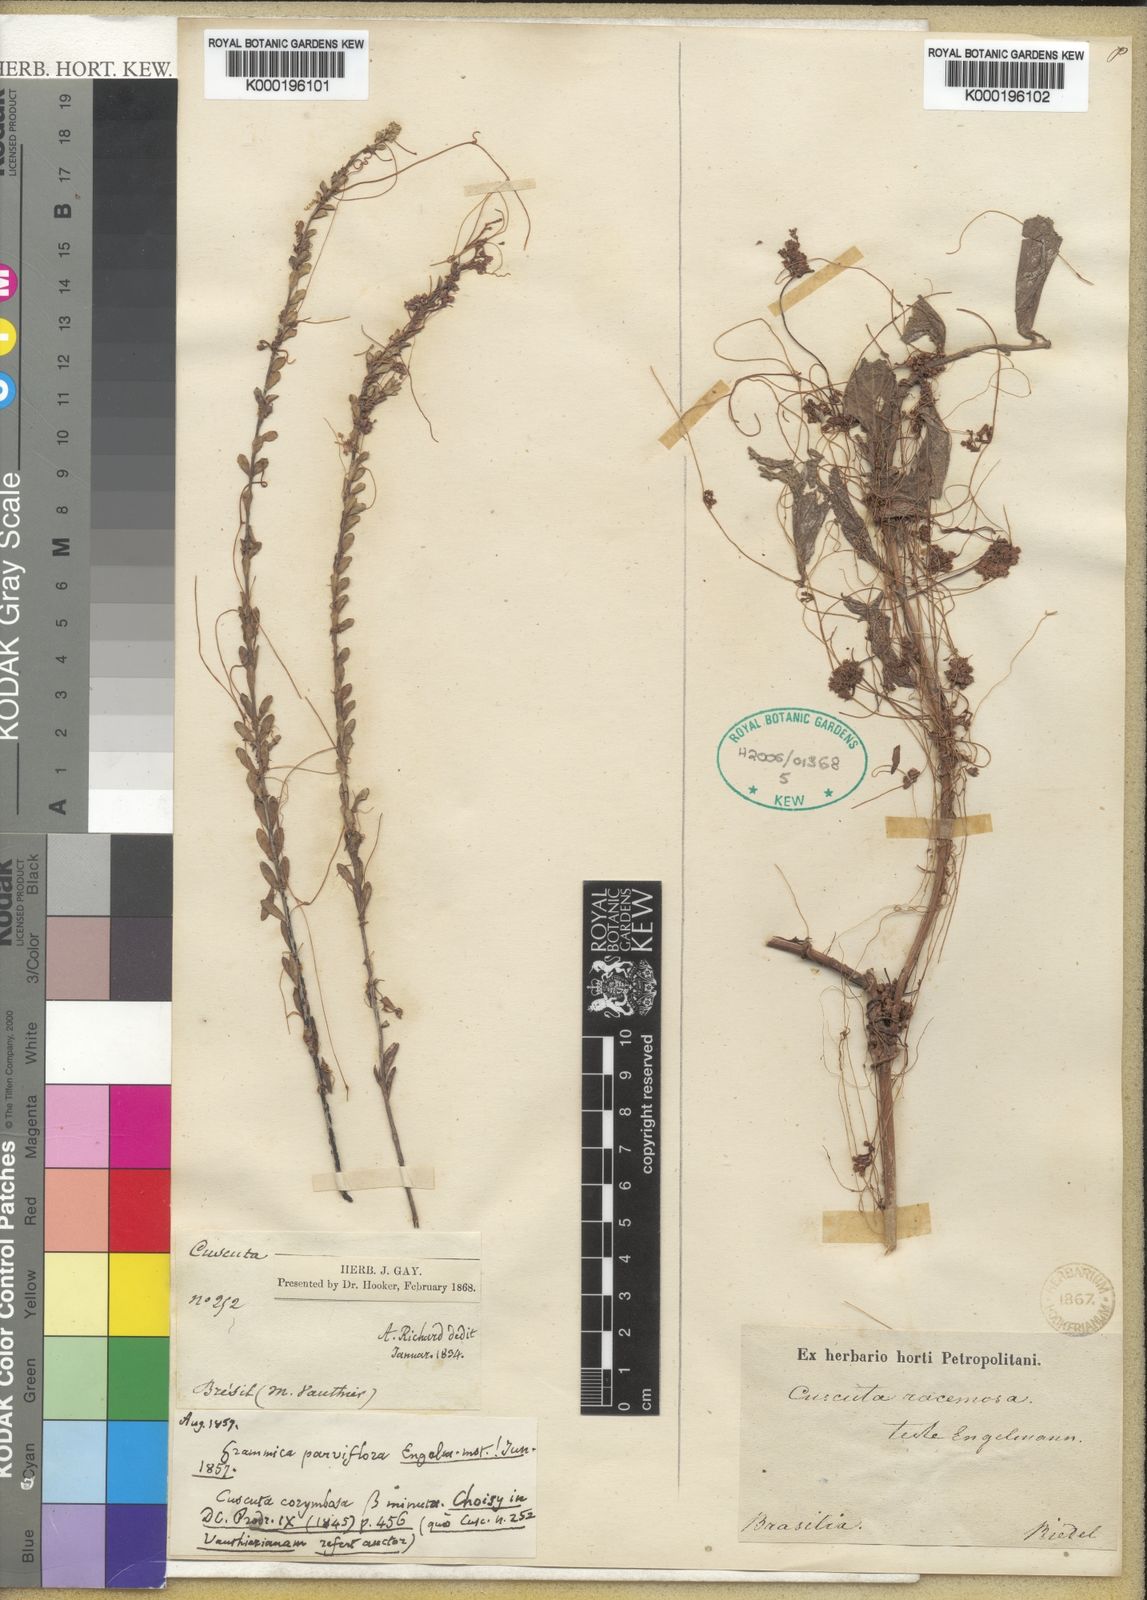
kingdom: Plantae
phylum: Tracheophyta
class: Magnoliopsida
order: Solanales
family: Convolvulaceae
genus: Cuscuta
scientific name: Cuscuta racemosa
